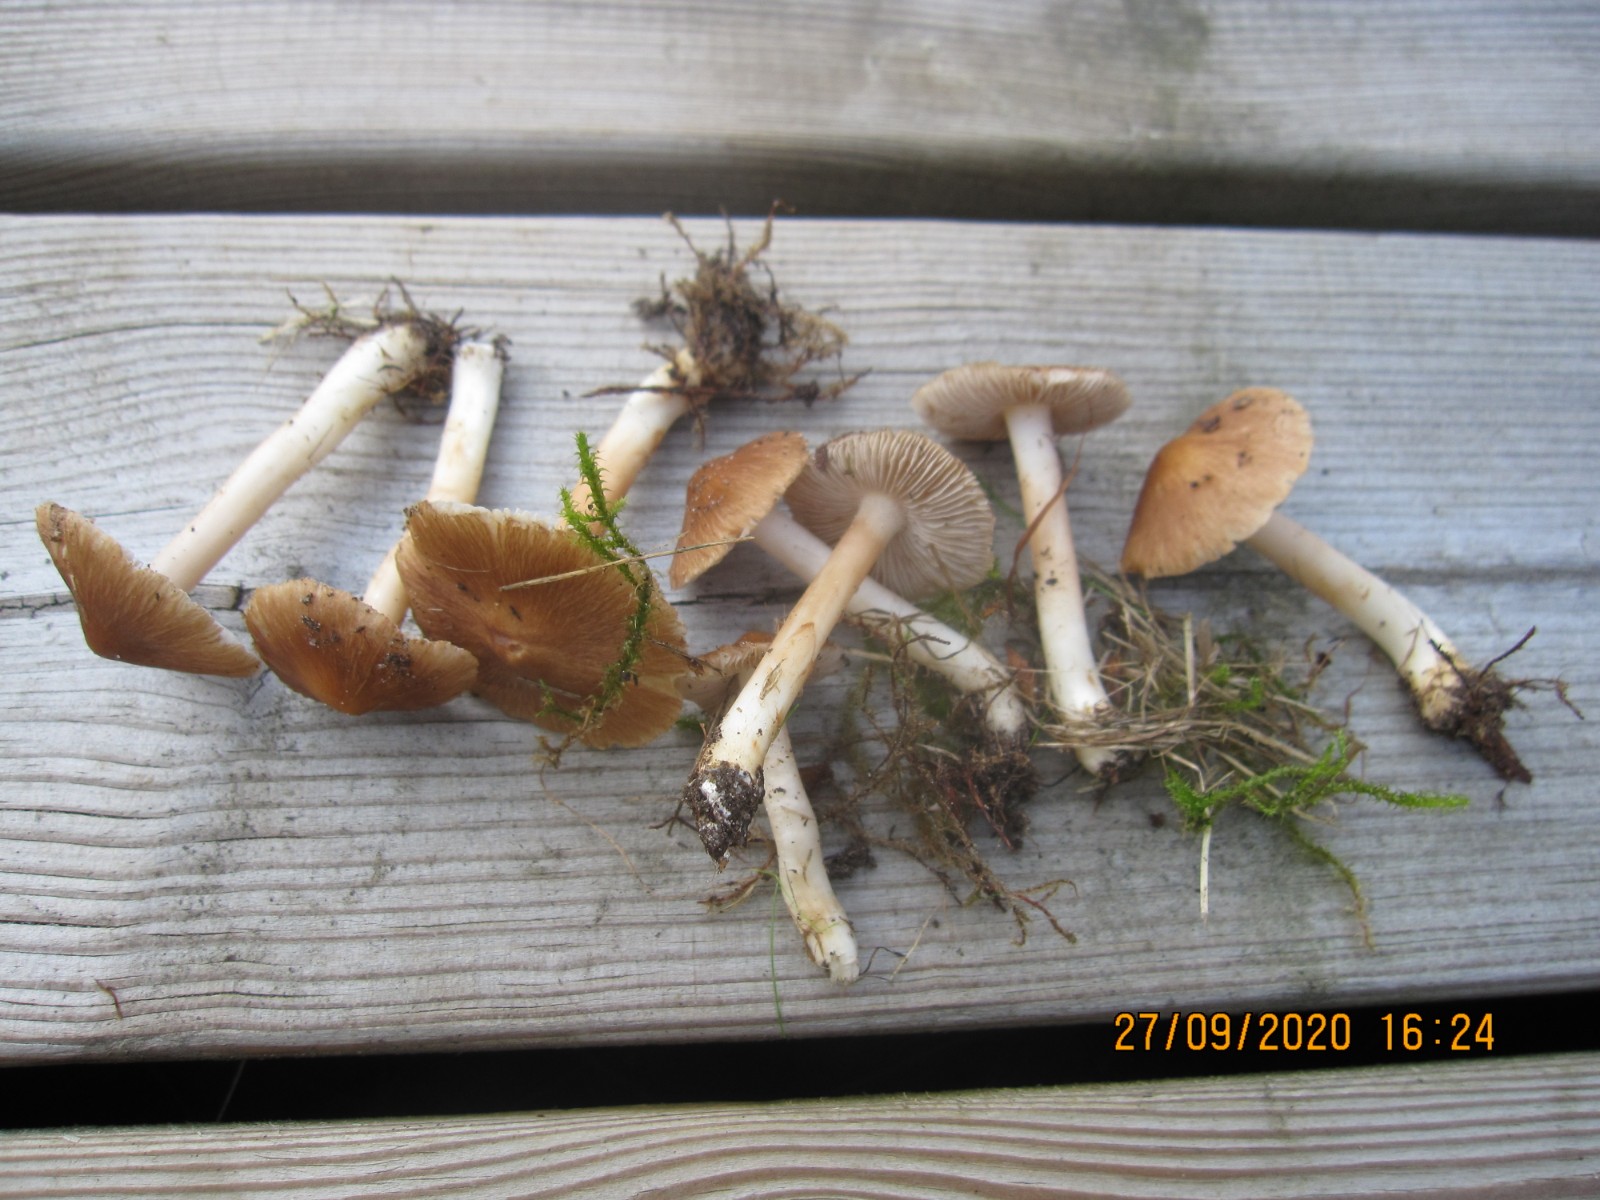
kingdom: Fungi
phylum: Basidiomycota
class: Agaricomycetes
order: Agaricales
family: Inocybaceae
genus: Pseudosperma
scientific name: Pseudosperma
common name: trævlhat
